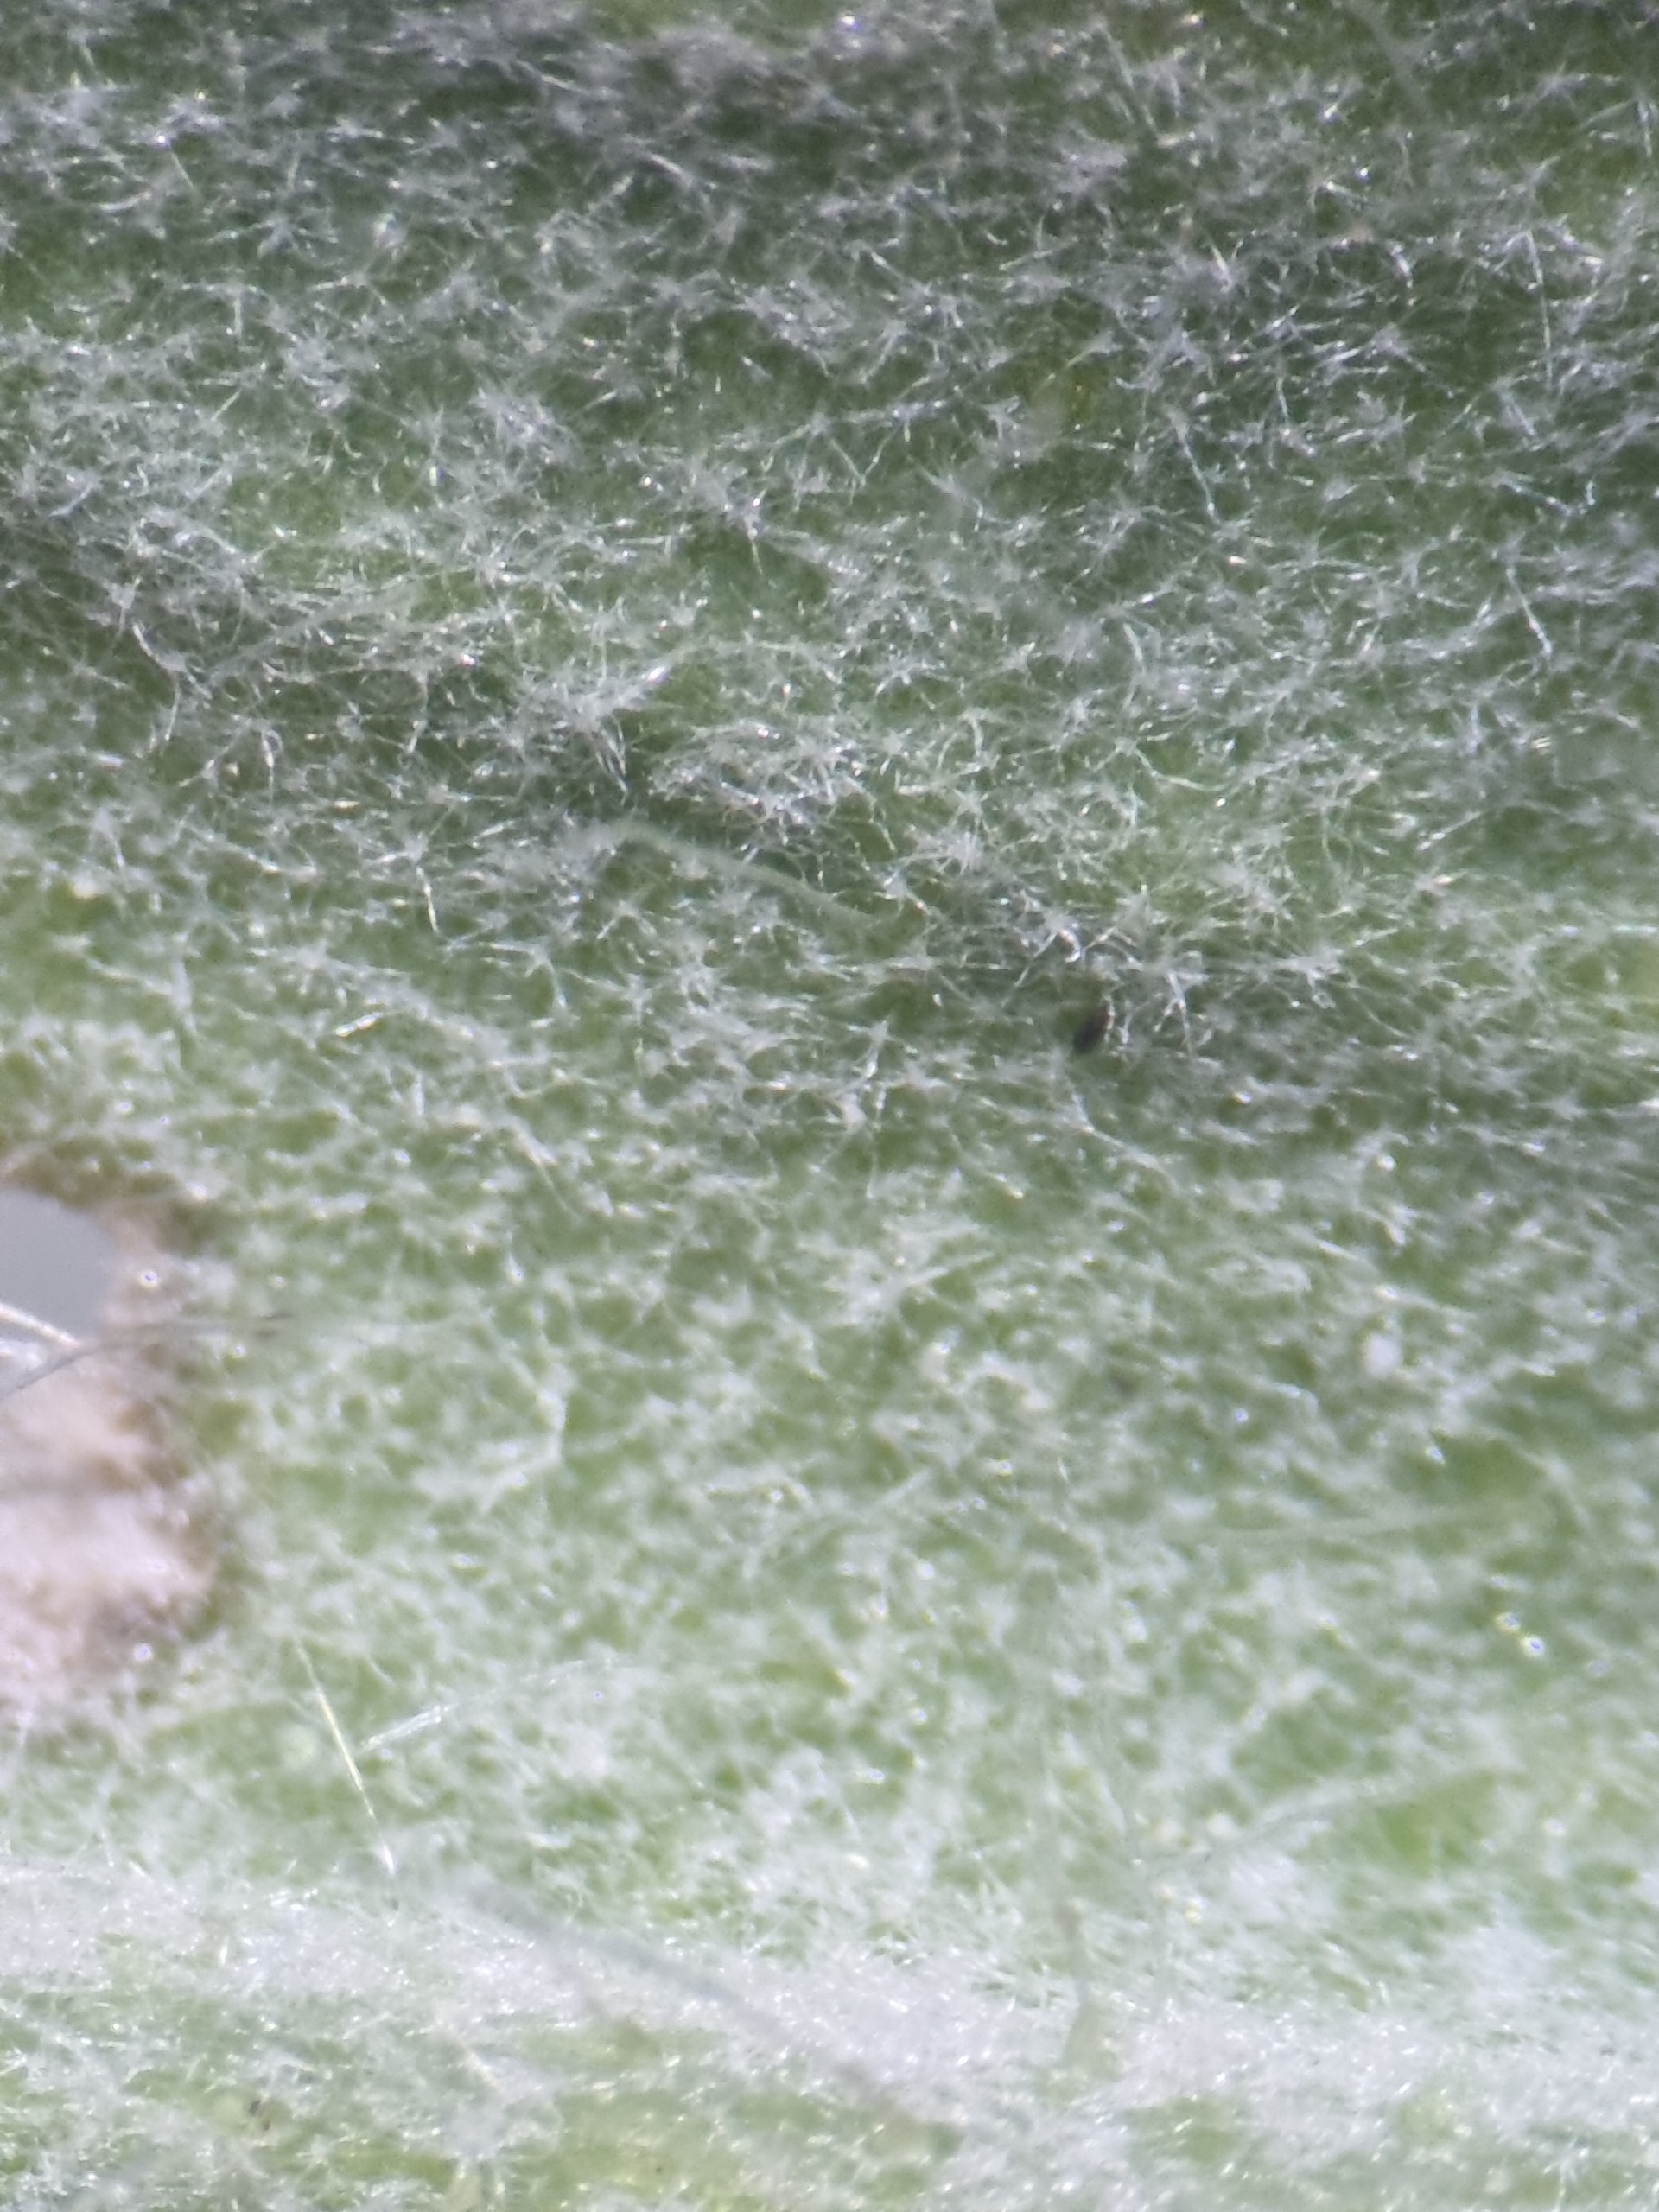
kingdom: Plantae
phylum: Tracheophyta
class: Magnoliopsida
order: Asterales
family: Asteraceae
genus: Pilosella
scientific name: Pilosella officinarum
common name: Håret høgeurt
